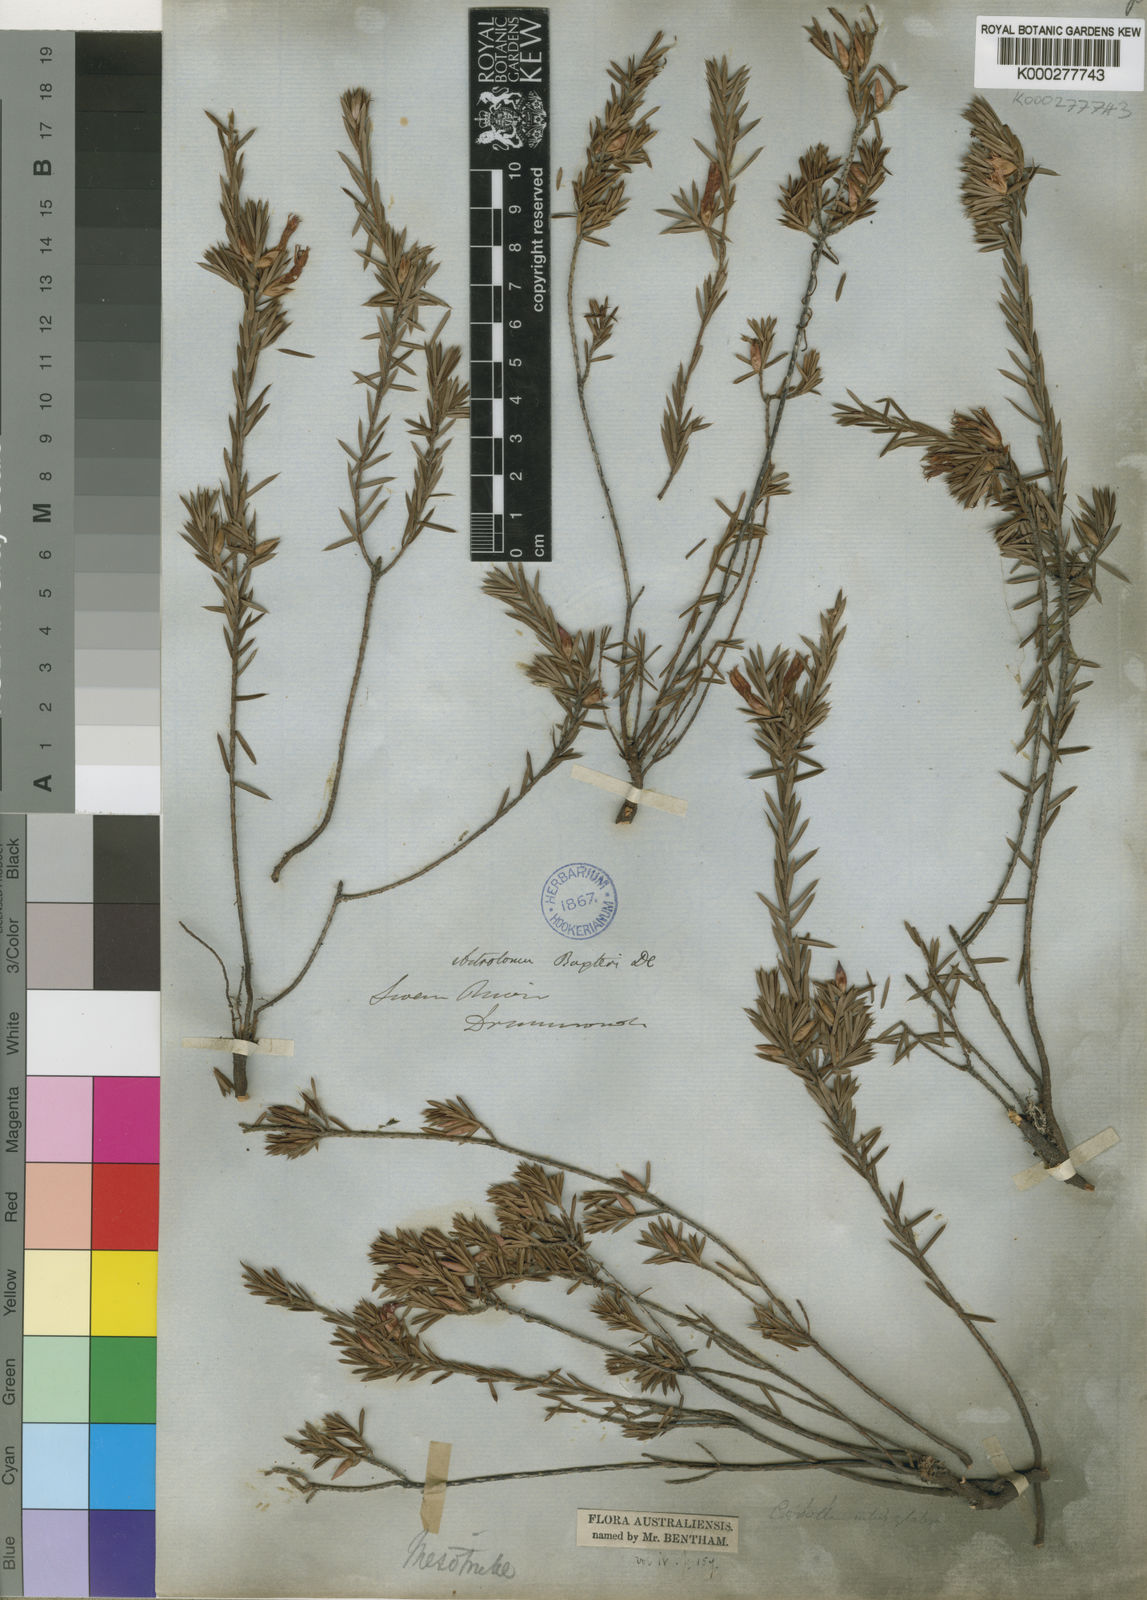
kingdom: Plantae
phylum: Tracheophyta
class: Magnoliopsida
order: Ericales
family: Ericaceae
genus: Brachyloma
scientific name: Brachyloma baxteri
